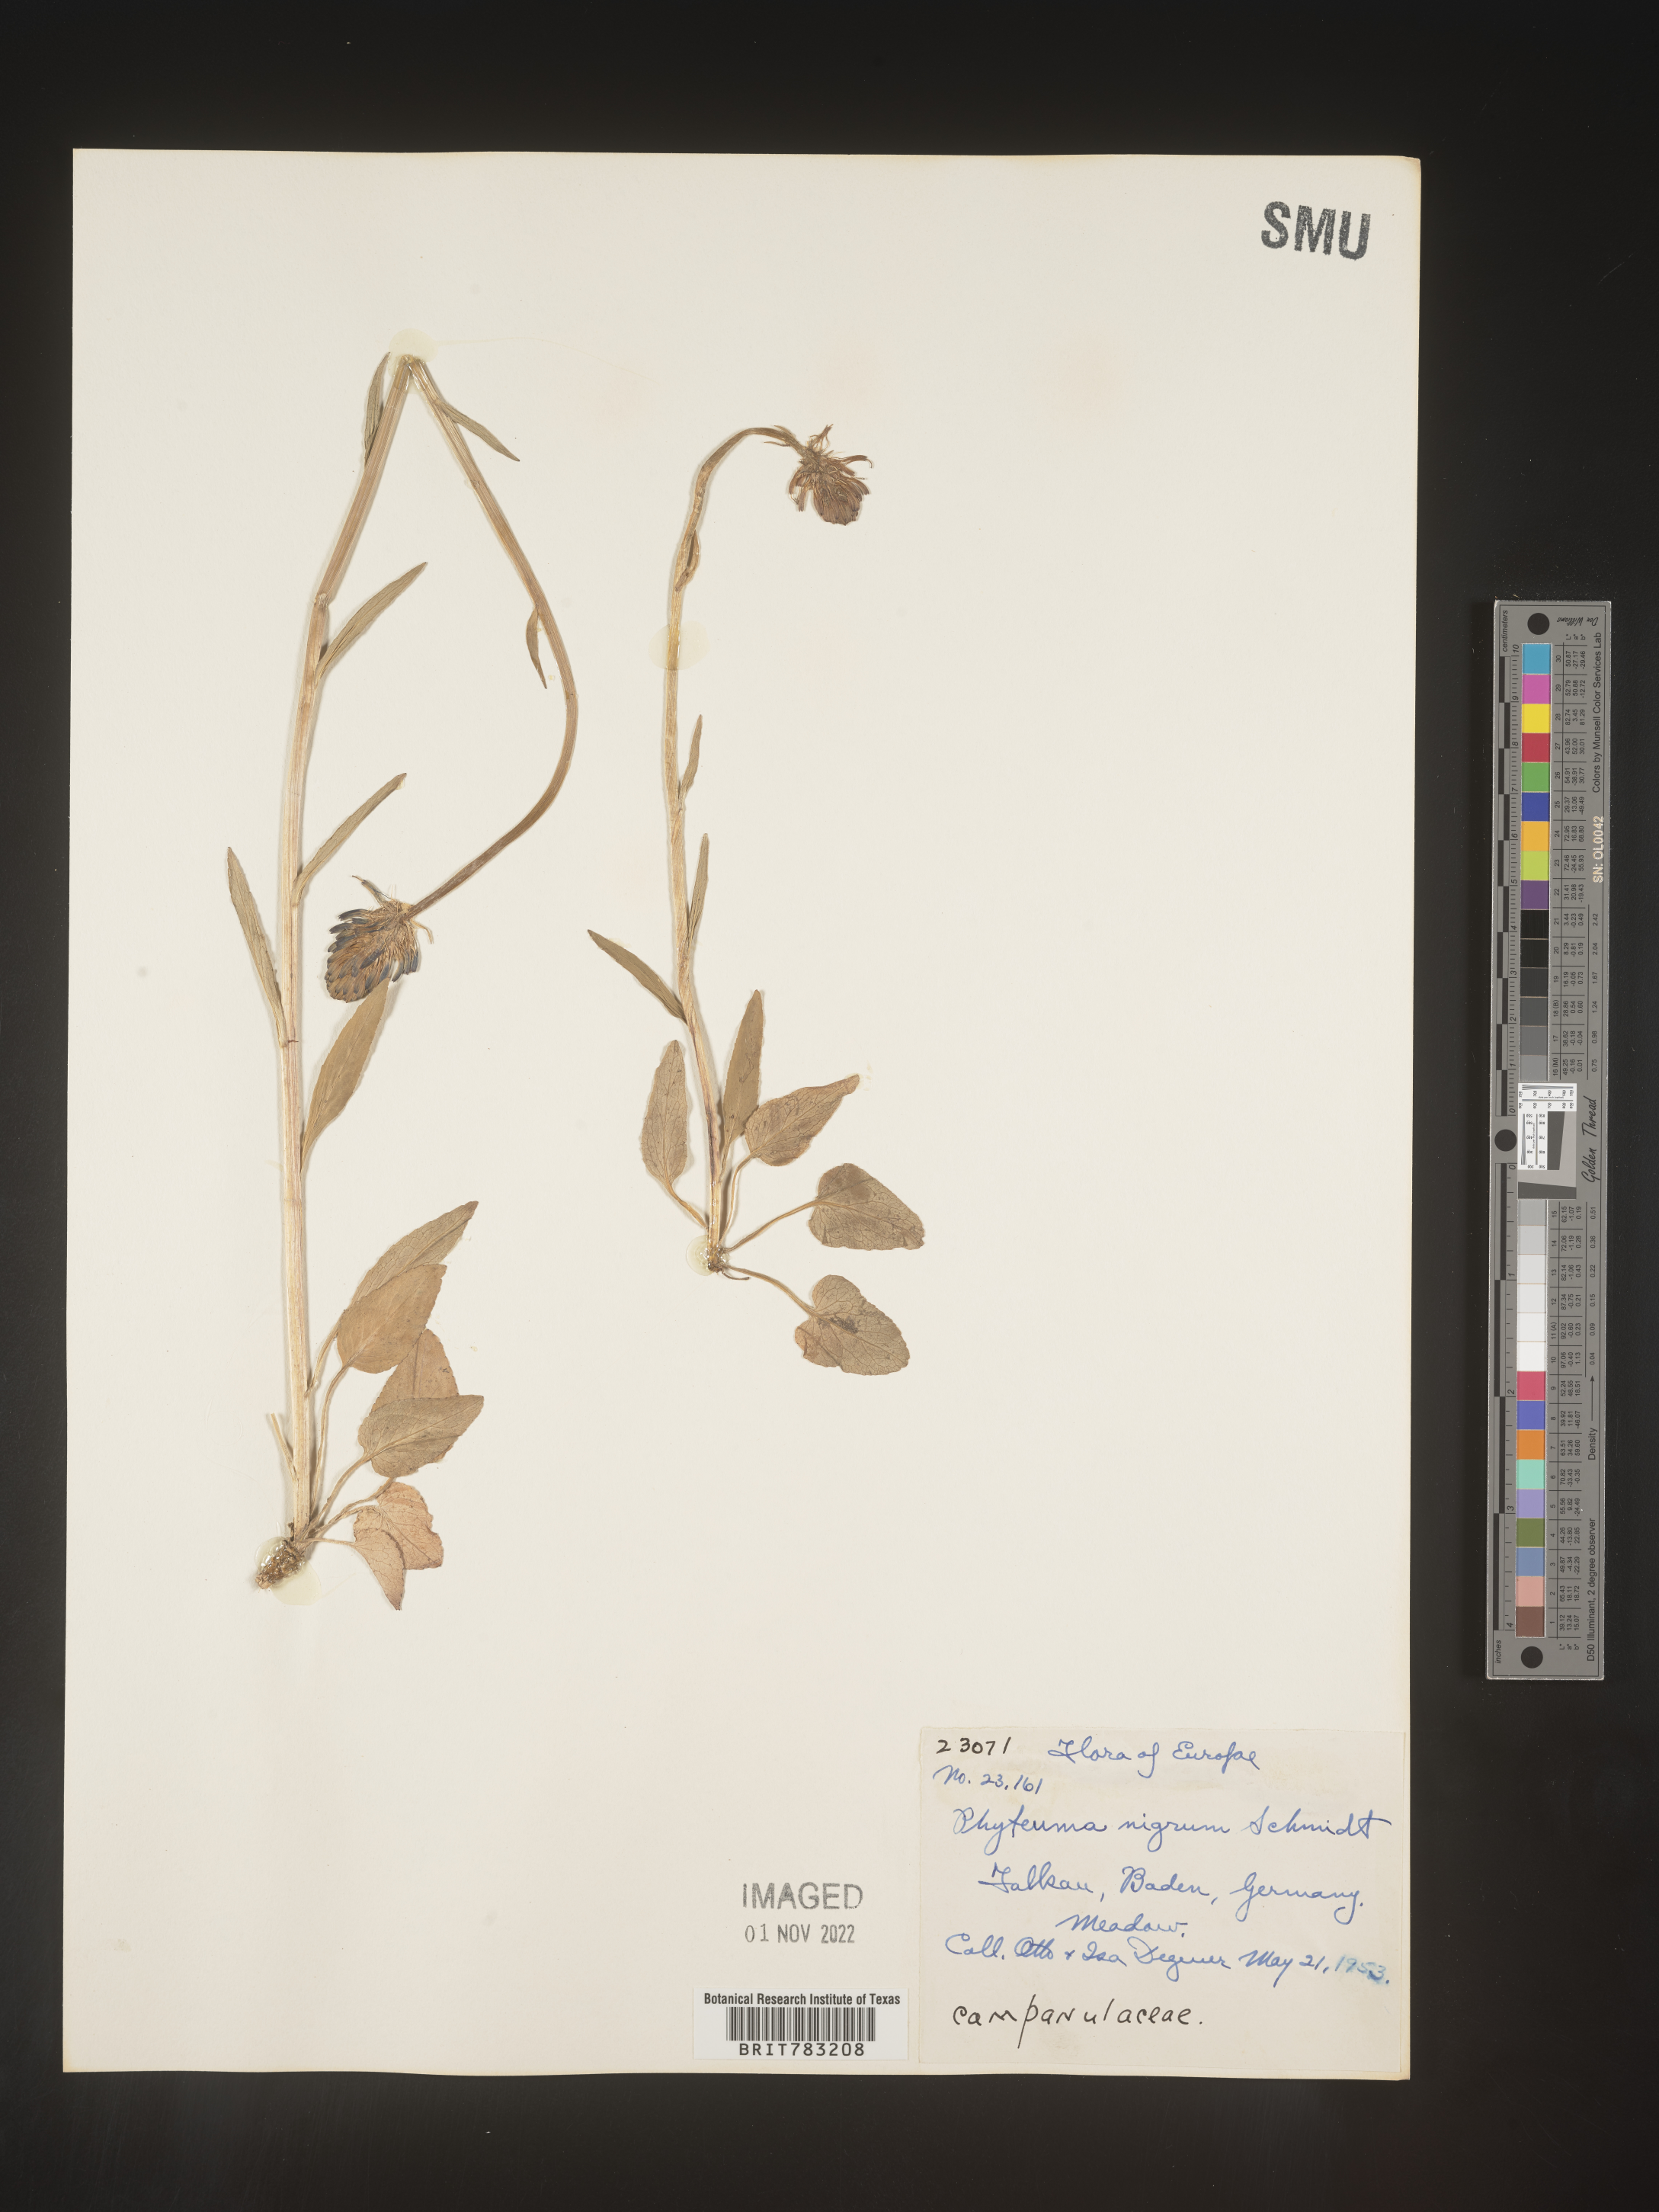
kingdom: Plantae
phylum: Tracheophyta
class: Magnoliopsida
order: Asterales
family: Campanulaceae
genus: Phyteuma
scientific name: Phyteuma
